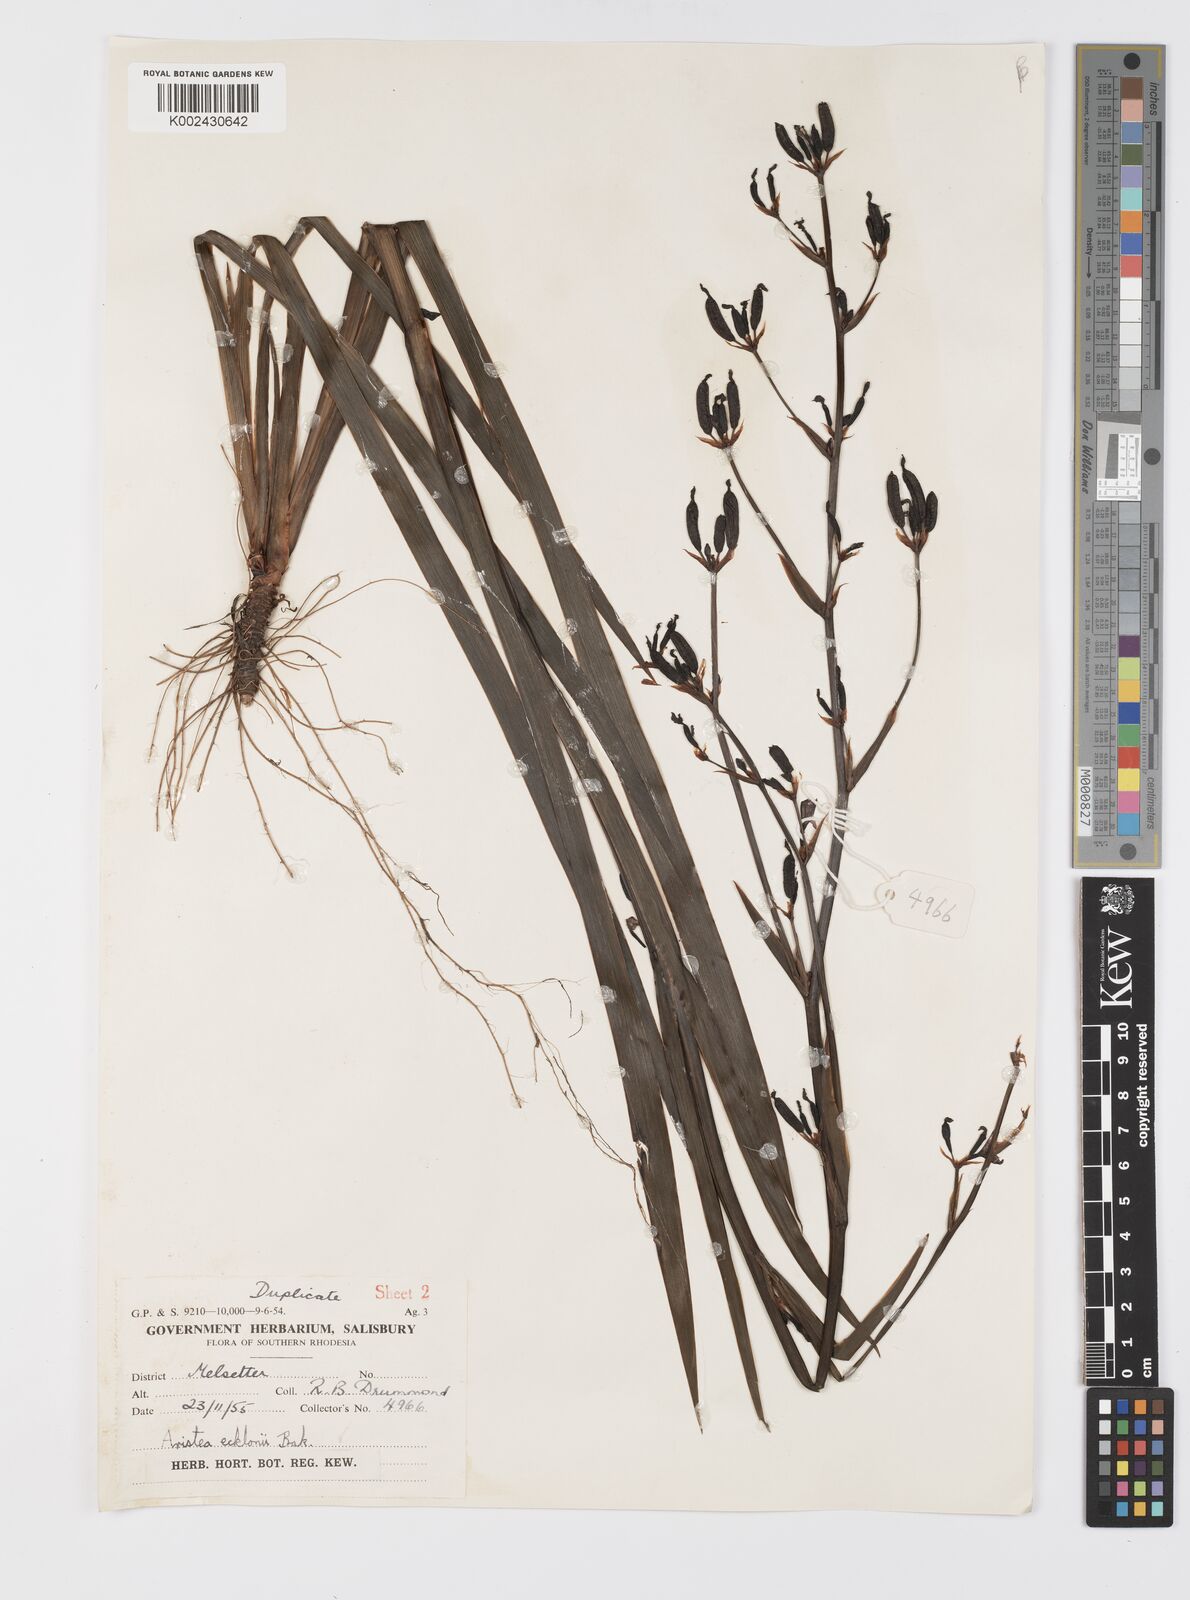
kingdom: Plantae
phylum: Tracheophyta
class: Liliopsida
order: Asparagales
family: Iridaceae
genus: Aristea
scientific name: Aristea ecklonii
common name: Blue corn-lily
